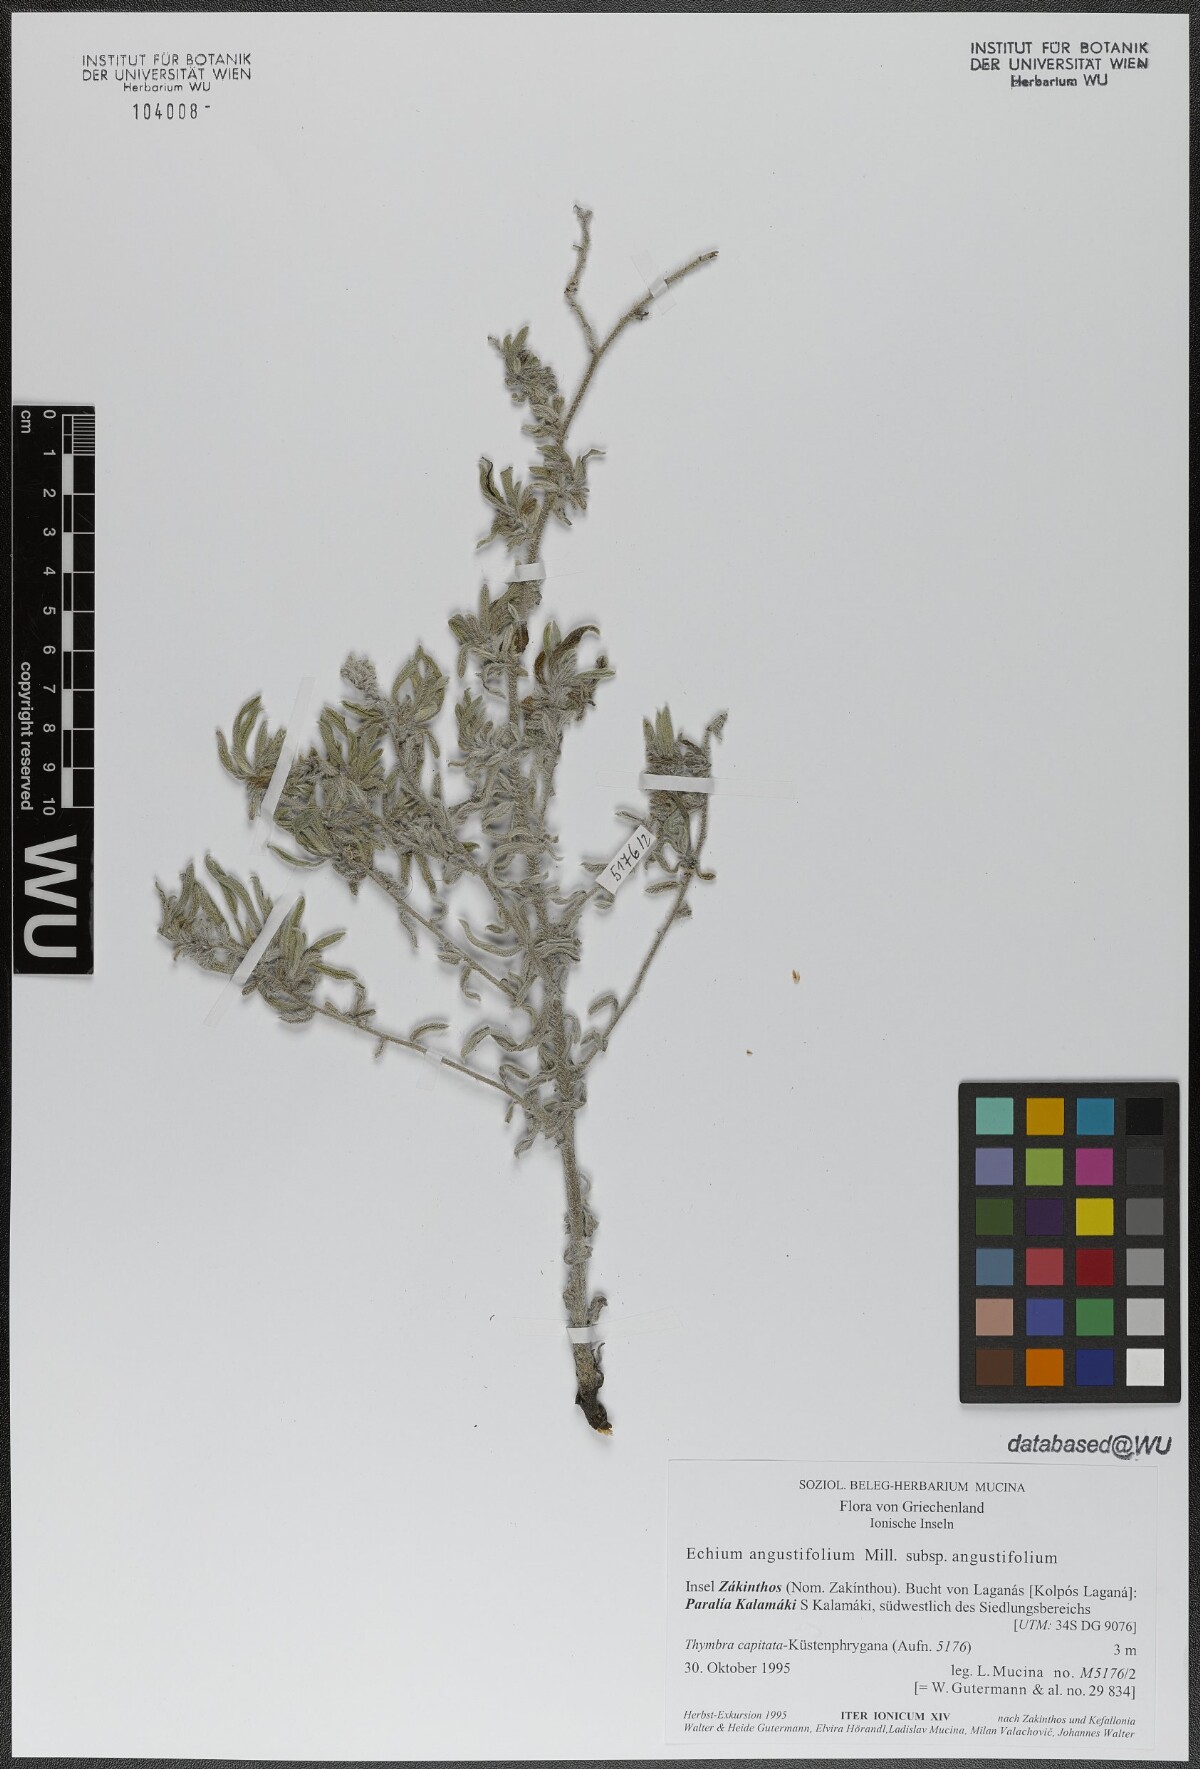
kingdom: Plantae
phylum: Tracheophyta
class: Magnoliopsida
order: Boraginales
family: Boraginaceae
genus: Echium
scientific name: Echium angustifolium
